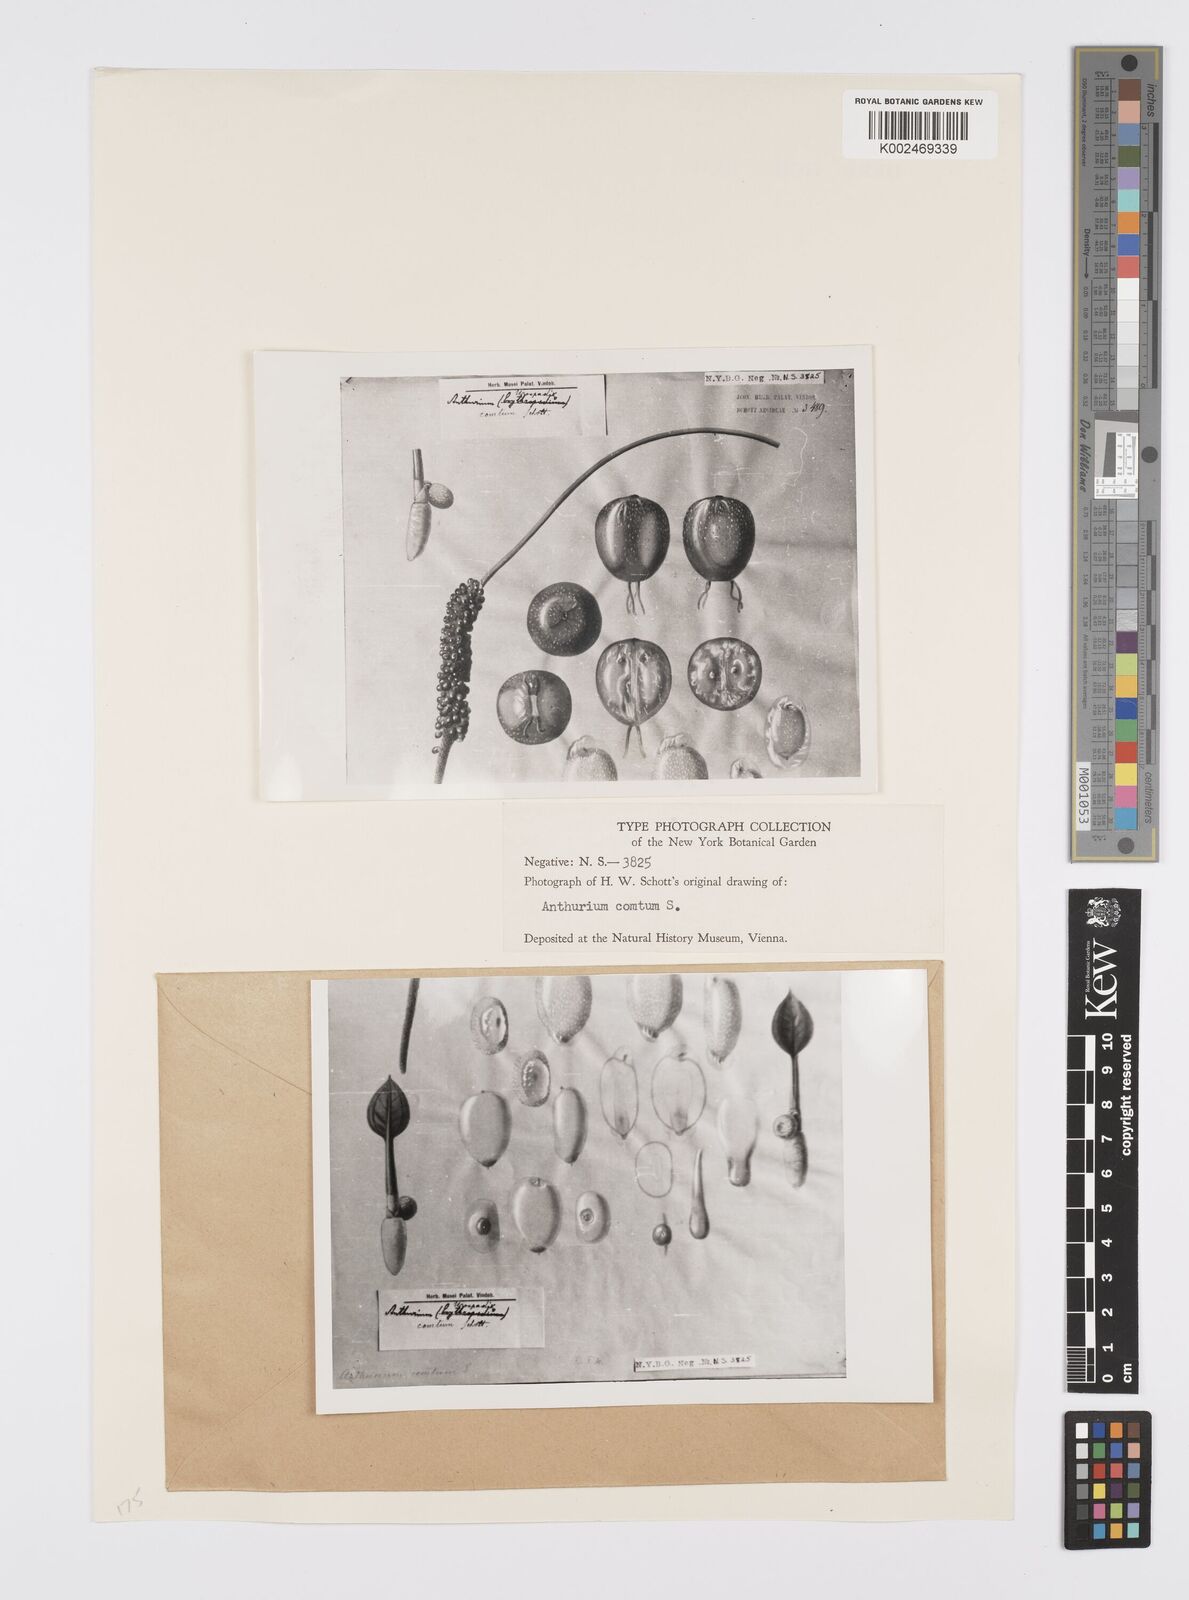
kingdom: Plantae
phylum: Tracheophyta
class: Liliopsida
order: Alismatales
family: Araceae
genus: Anthurium
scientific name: Anthurium comtum
